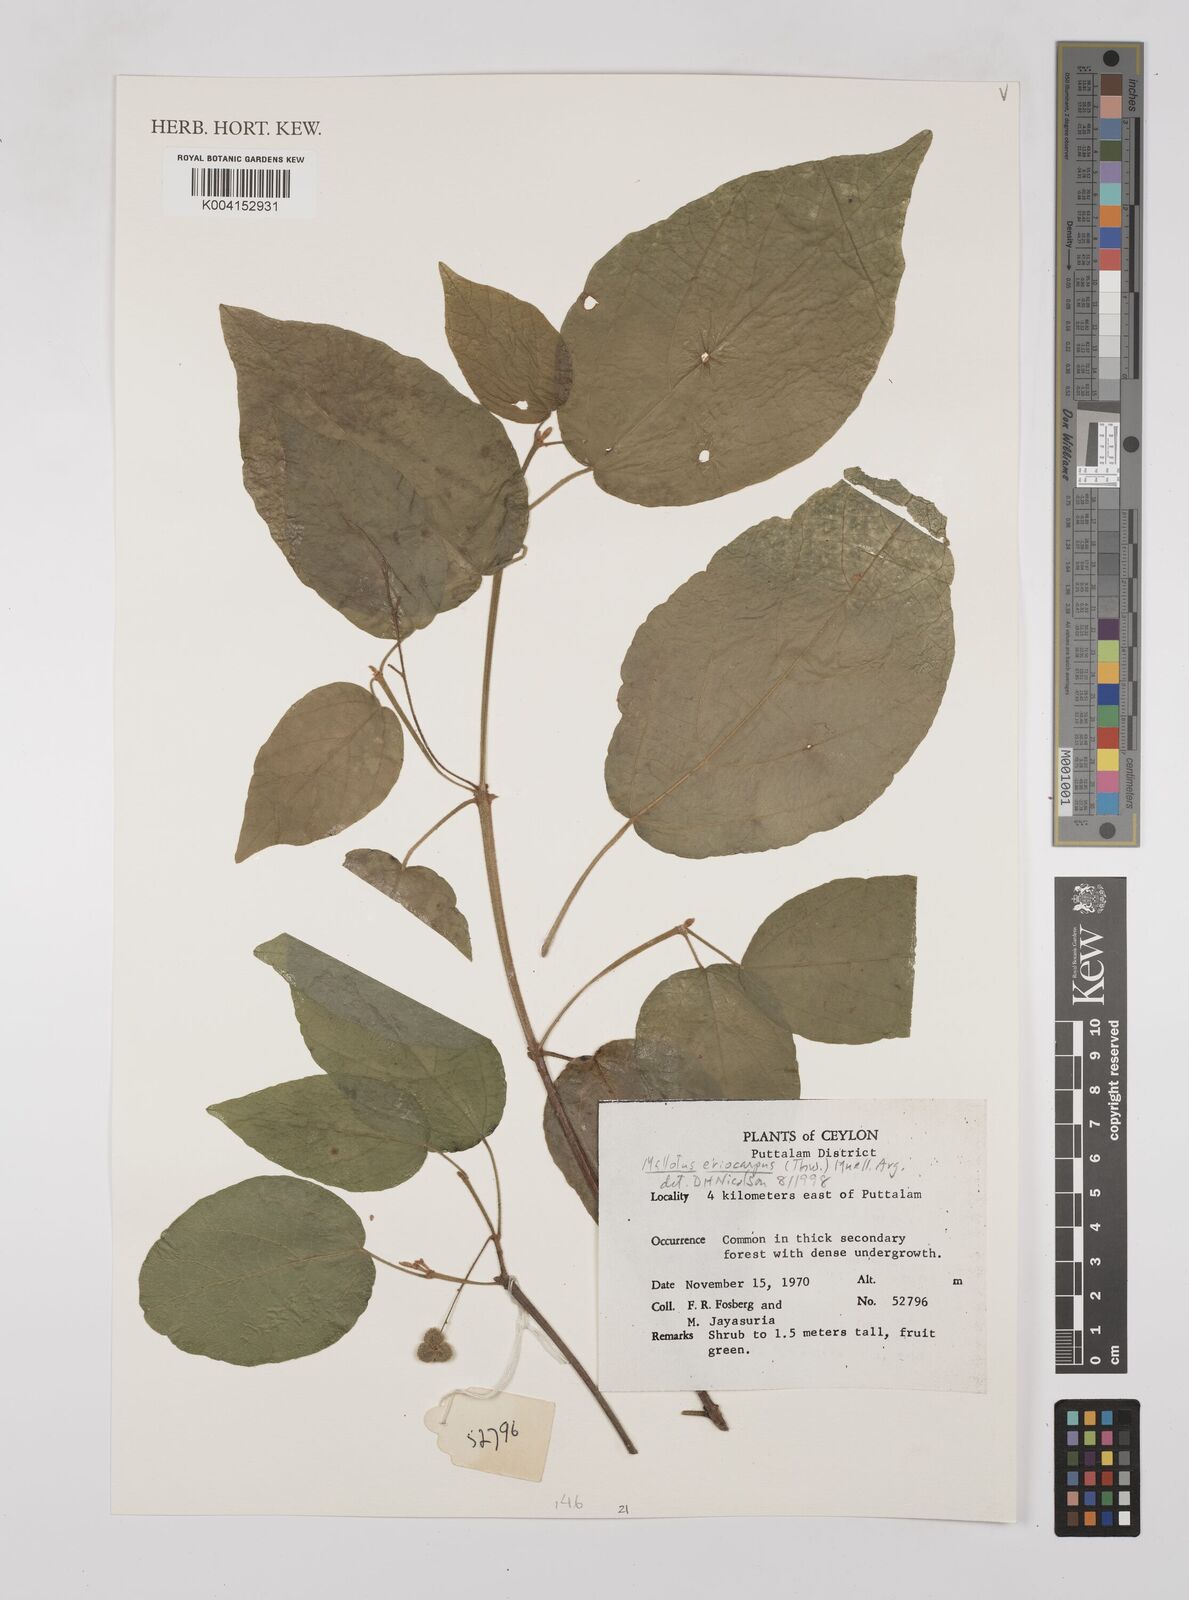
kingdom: Plantae
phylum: Tracheophyta
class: Magnoliopsida
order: Malpighiales
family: Euphorbiaceae
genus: Mallotus
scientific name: Mallotus eriocarpus
